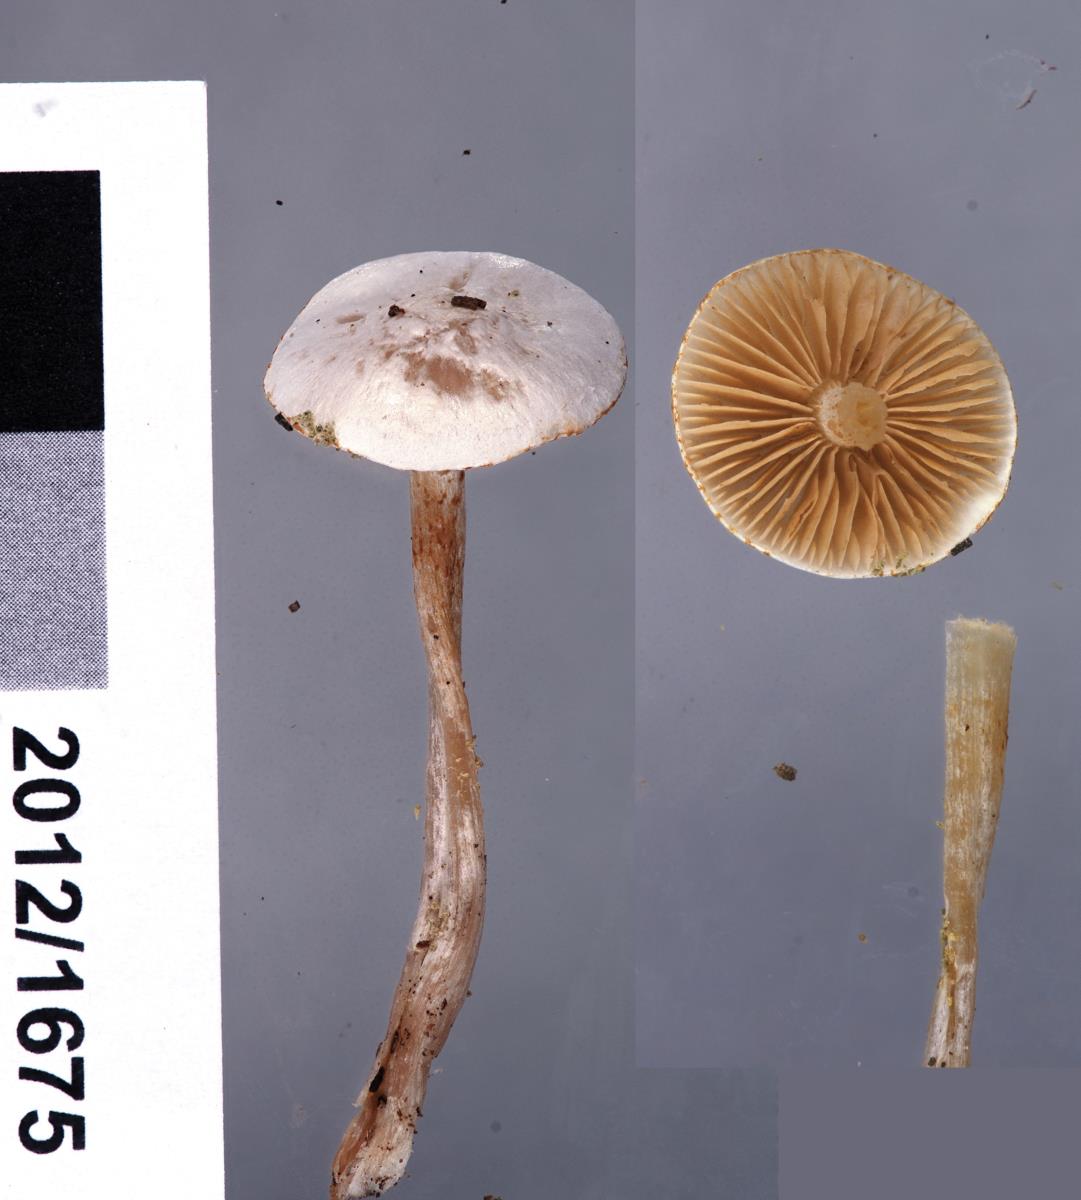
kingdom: Fungi
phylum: Basidiomycota
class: Agaricomycetes
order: Agaricales
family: Cortinariaceae
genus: Cortinarius
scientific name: Cortinarius
